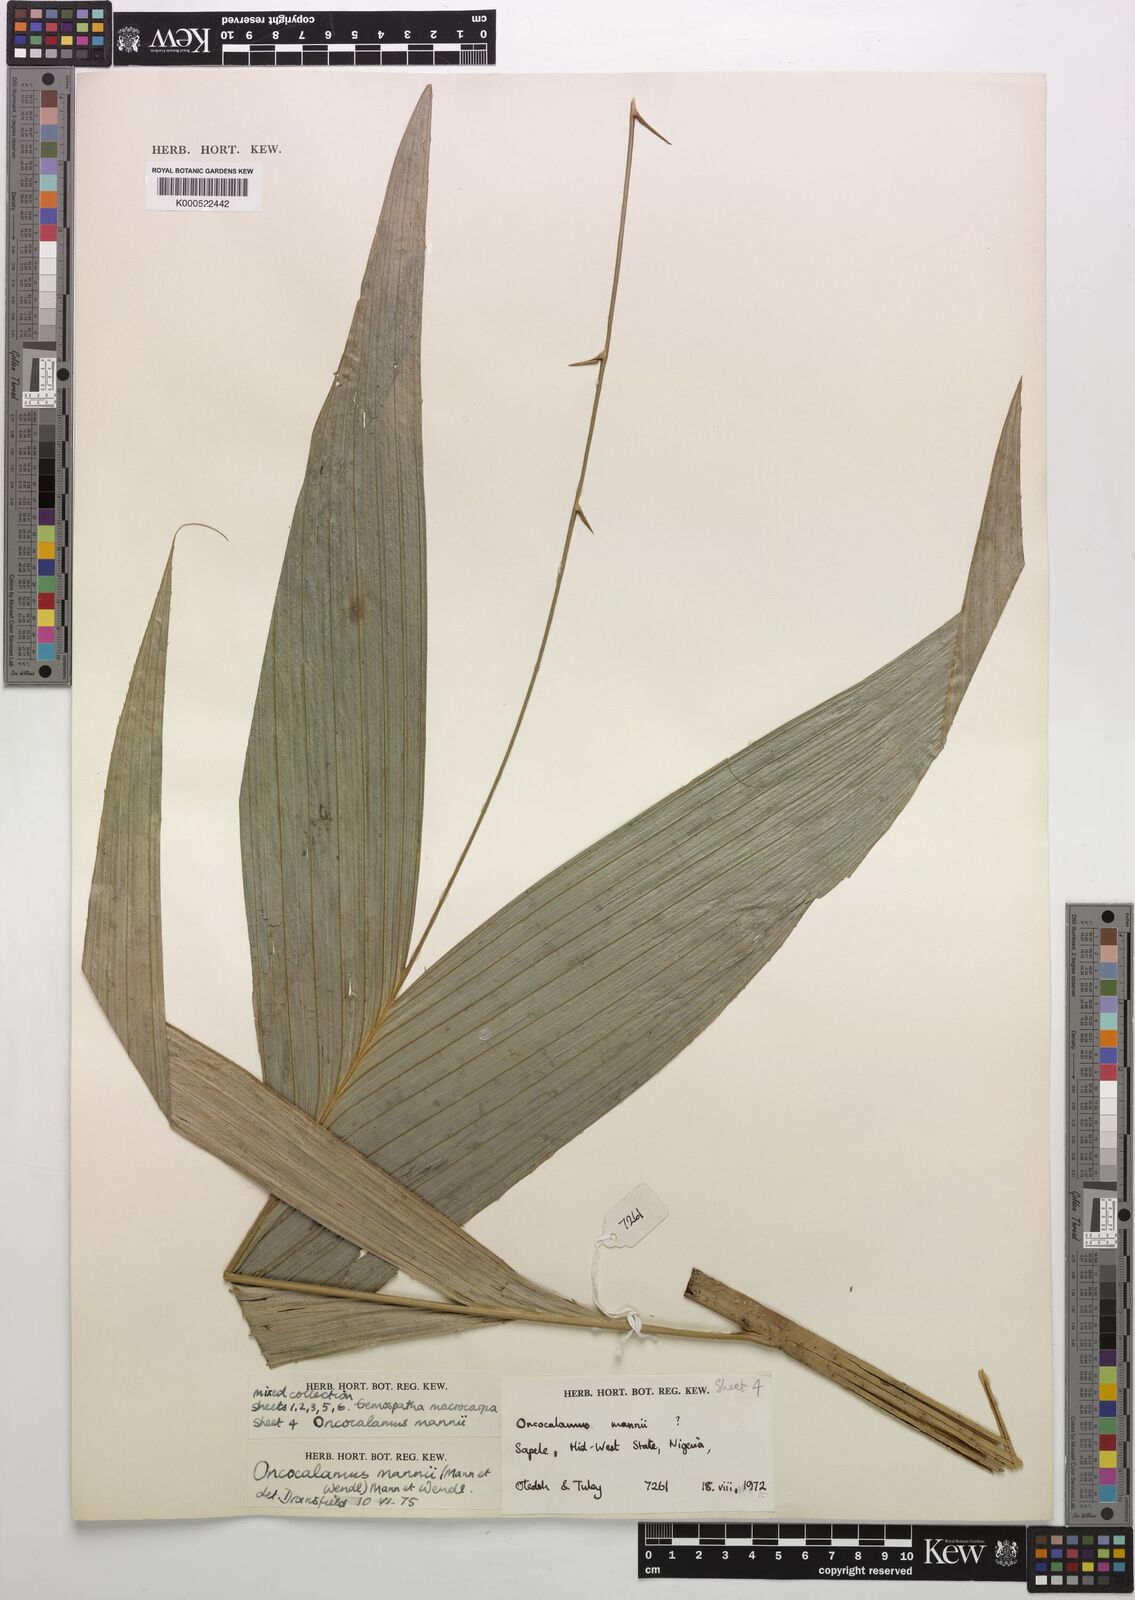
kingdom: Plantae
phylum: Tracheophyta
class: Liliopsida
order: Arecales
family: Arecaceae
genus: Oncocalamus
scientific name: Oncocalamus mannii
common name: Rattan
